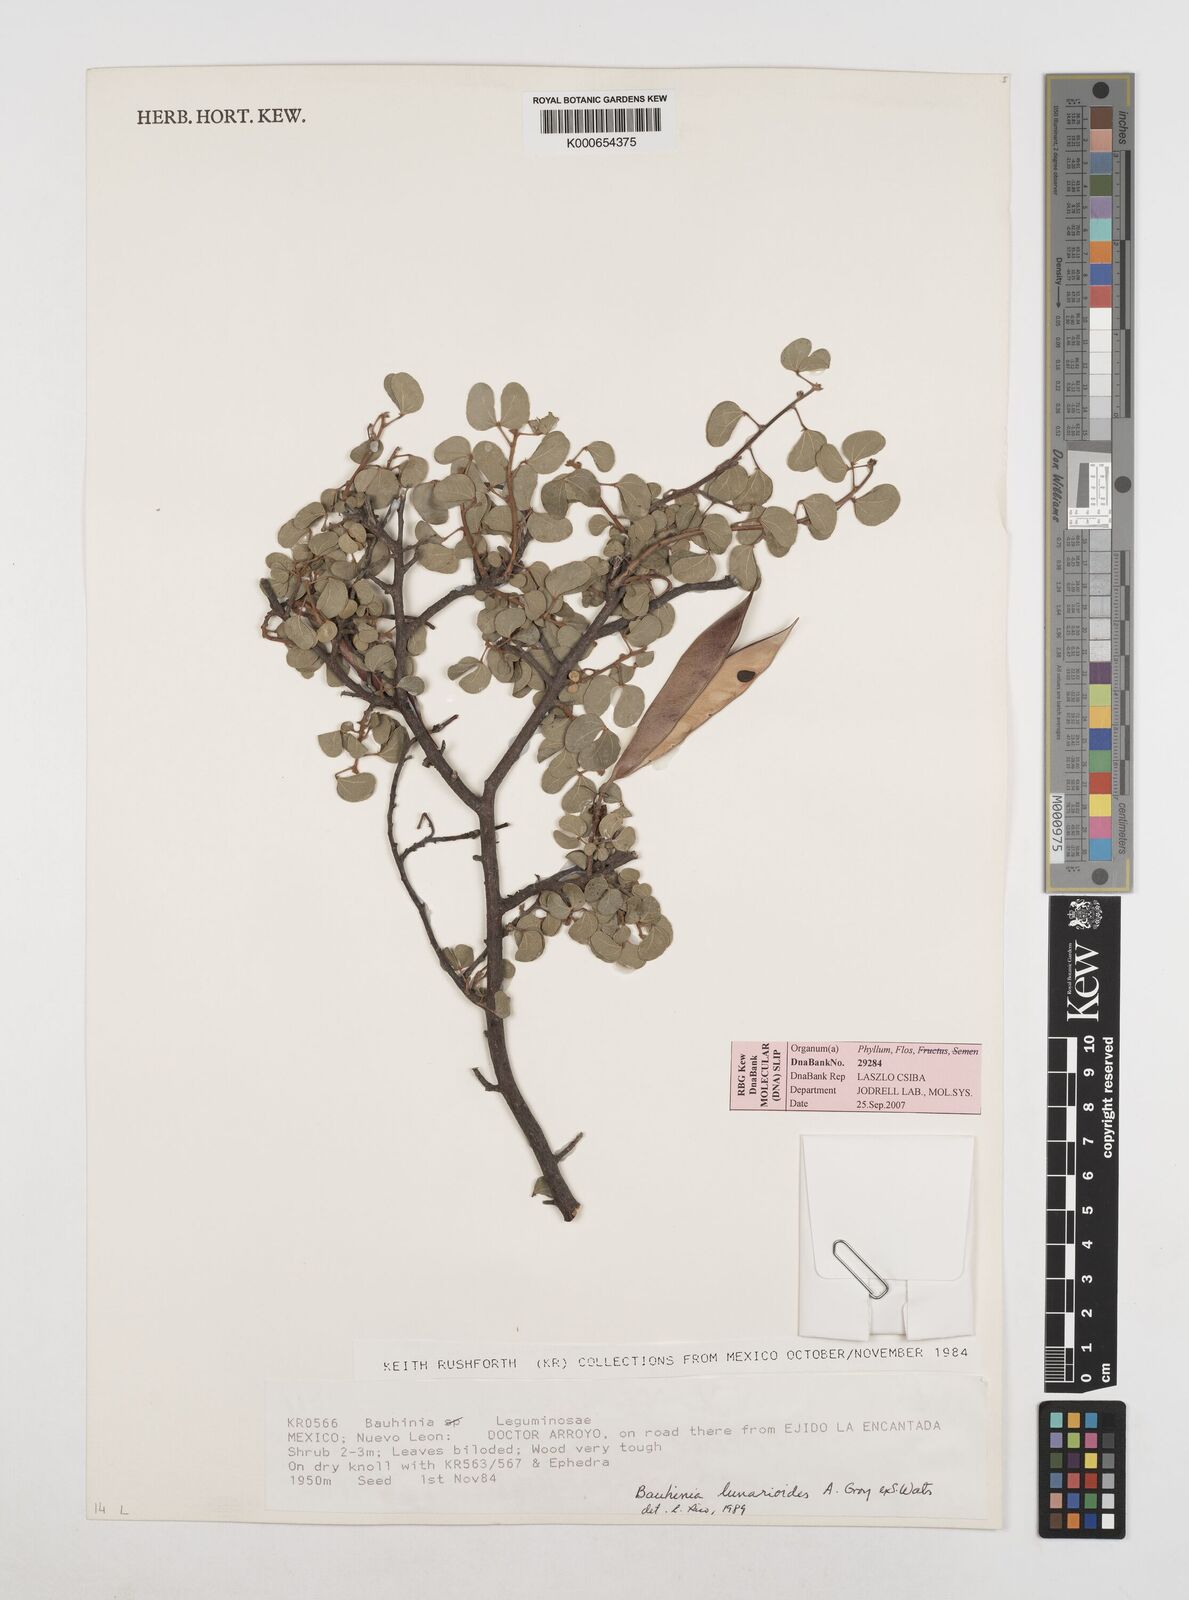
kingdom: Plantae
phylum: Tracheophyta
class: Magnoliopsida
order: Fabales
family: Fabaceae
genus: Bauhinia
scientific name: Bauhinia lunarioides
